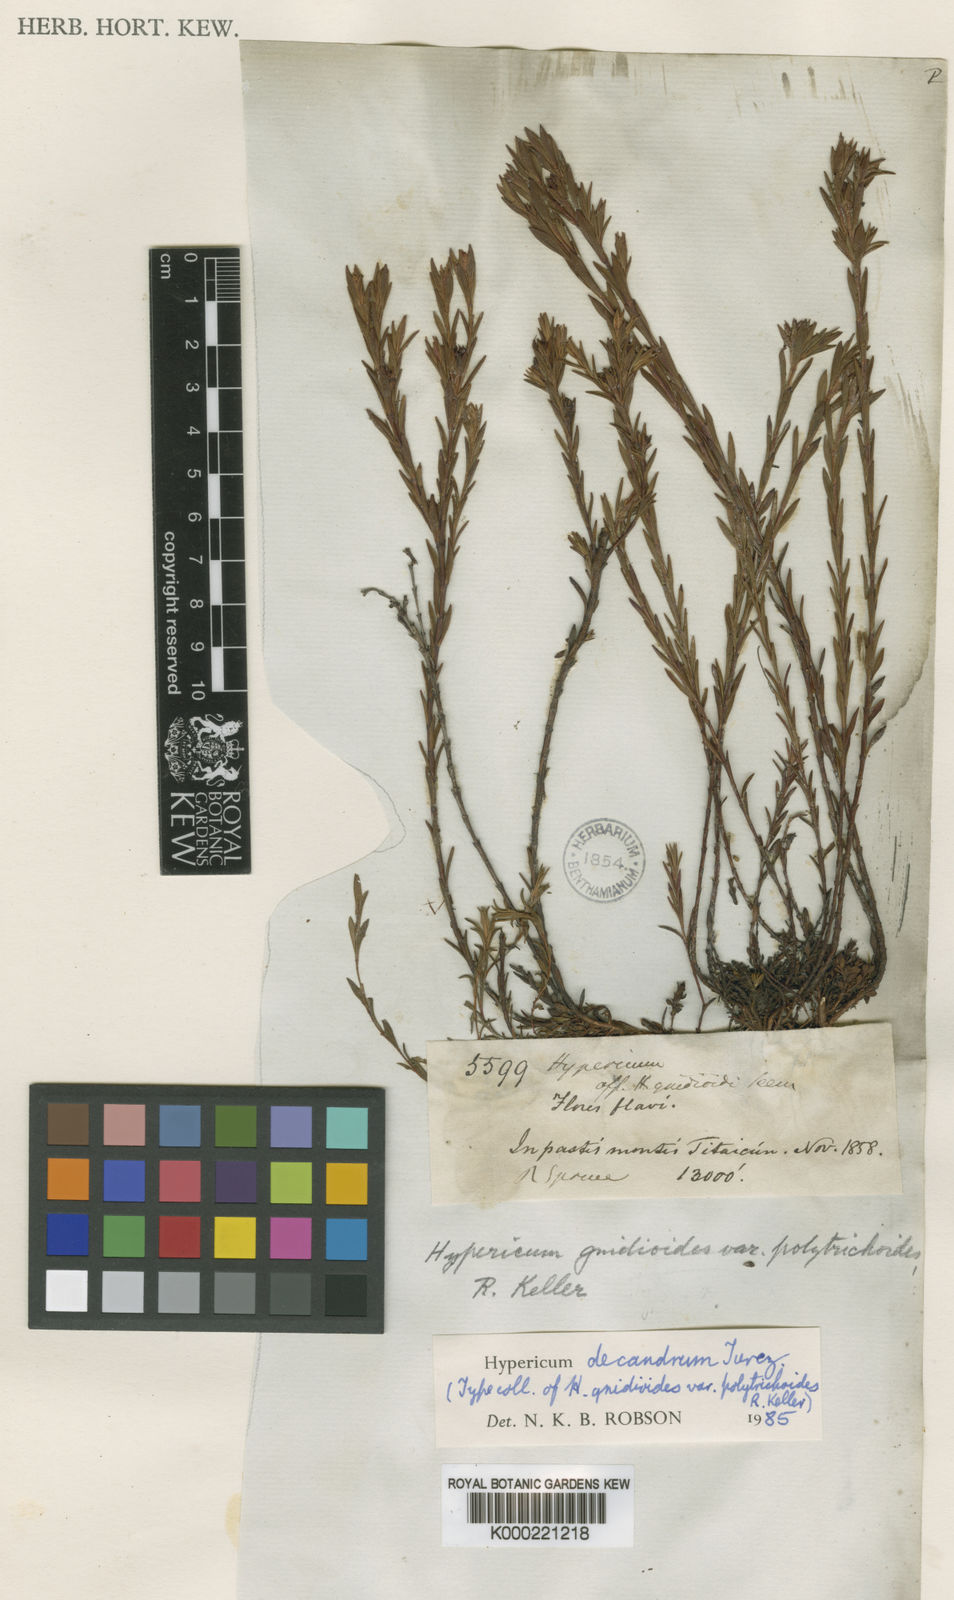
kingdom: Plantae
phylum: Tracheophyta
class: Magnoliopsida
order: Malpighiales
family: Hypericaceae
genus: Hypericum
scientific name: Hypericum decandrum
